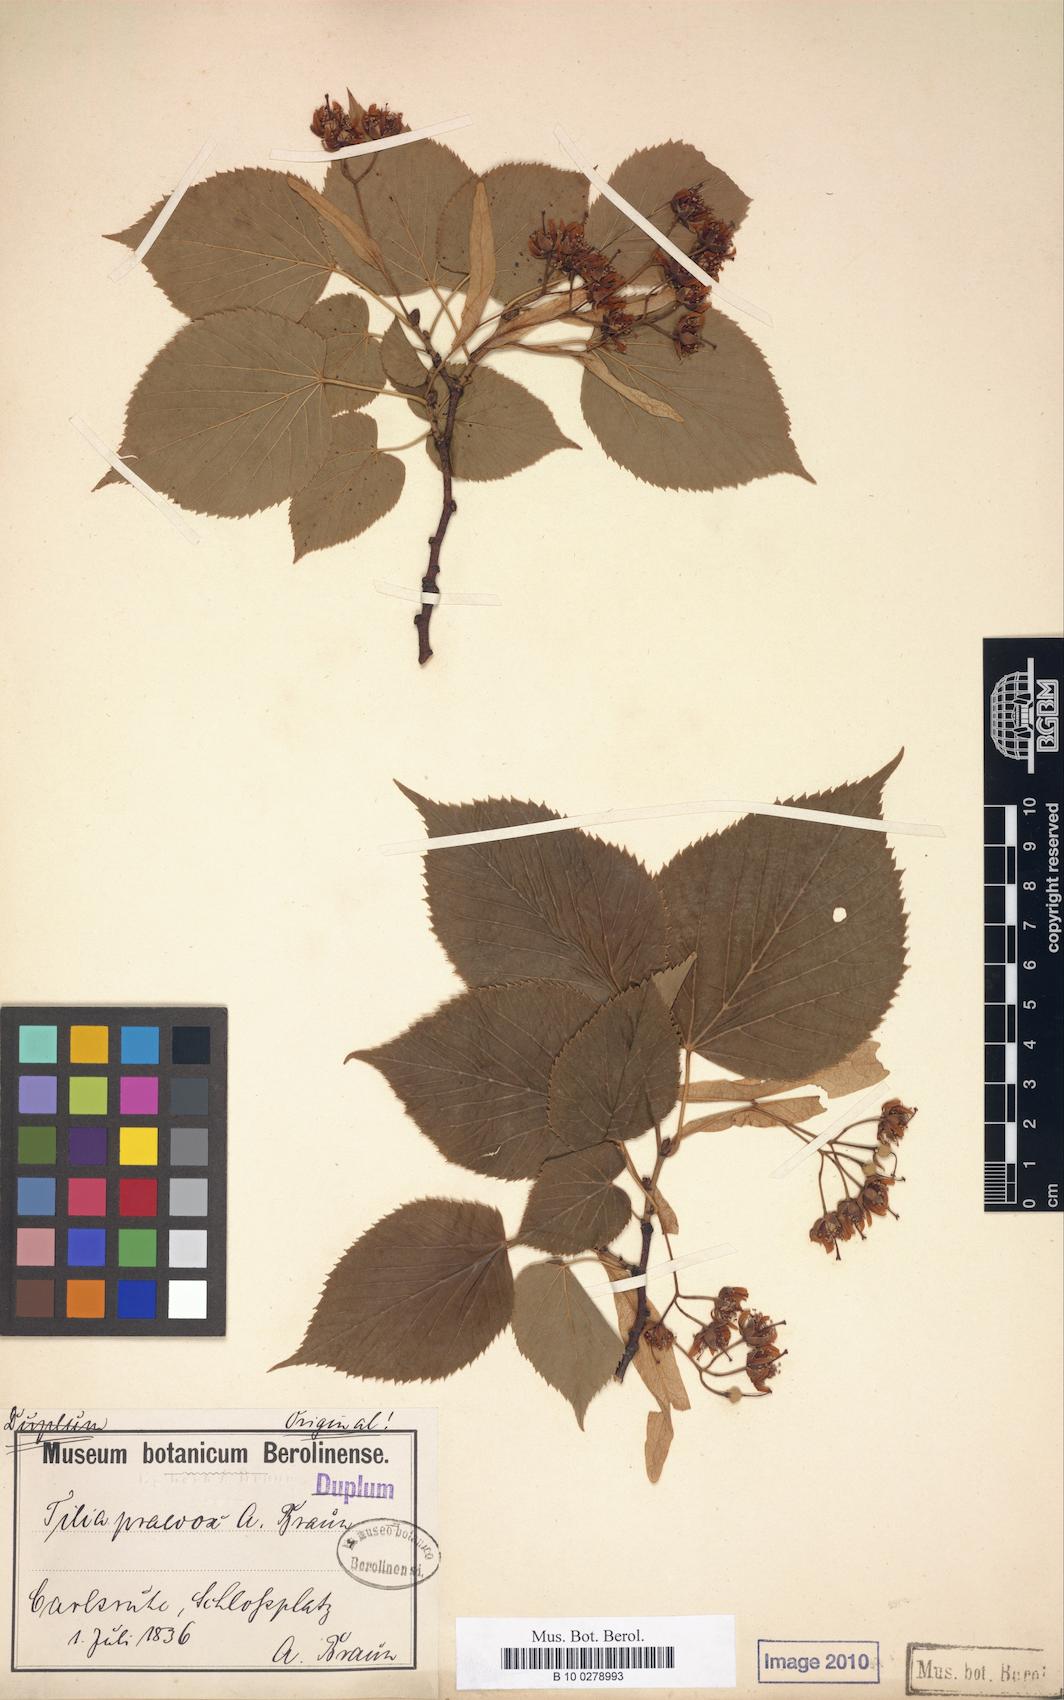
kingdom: Plantae
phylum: Tracheophyta
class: Magnoliopsida
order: Malvales
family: Malvaceae
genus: Tilia
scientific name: Tilia flaccida
